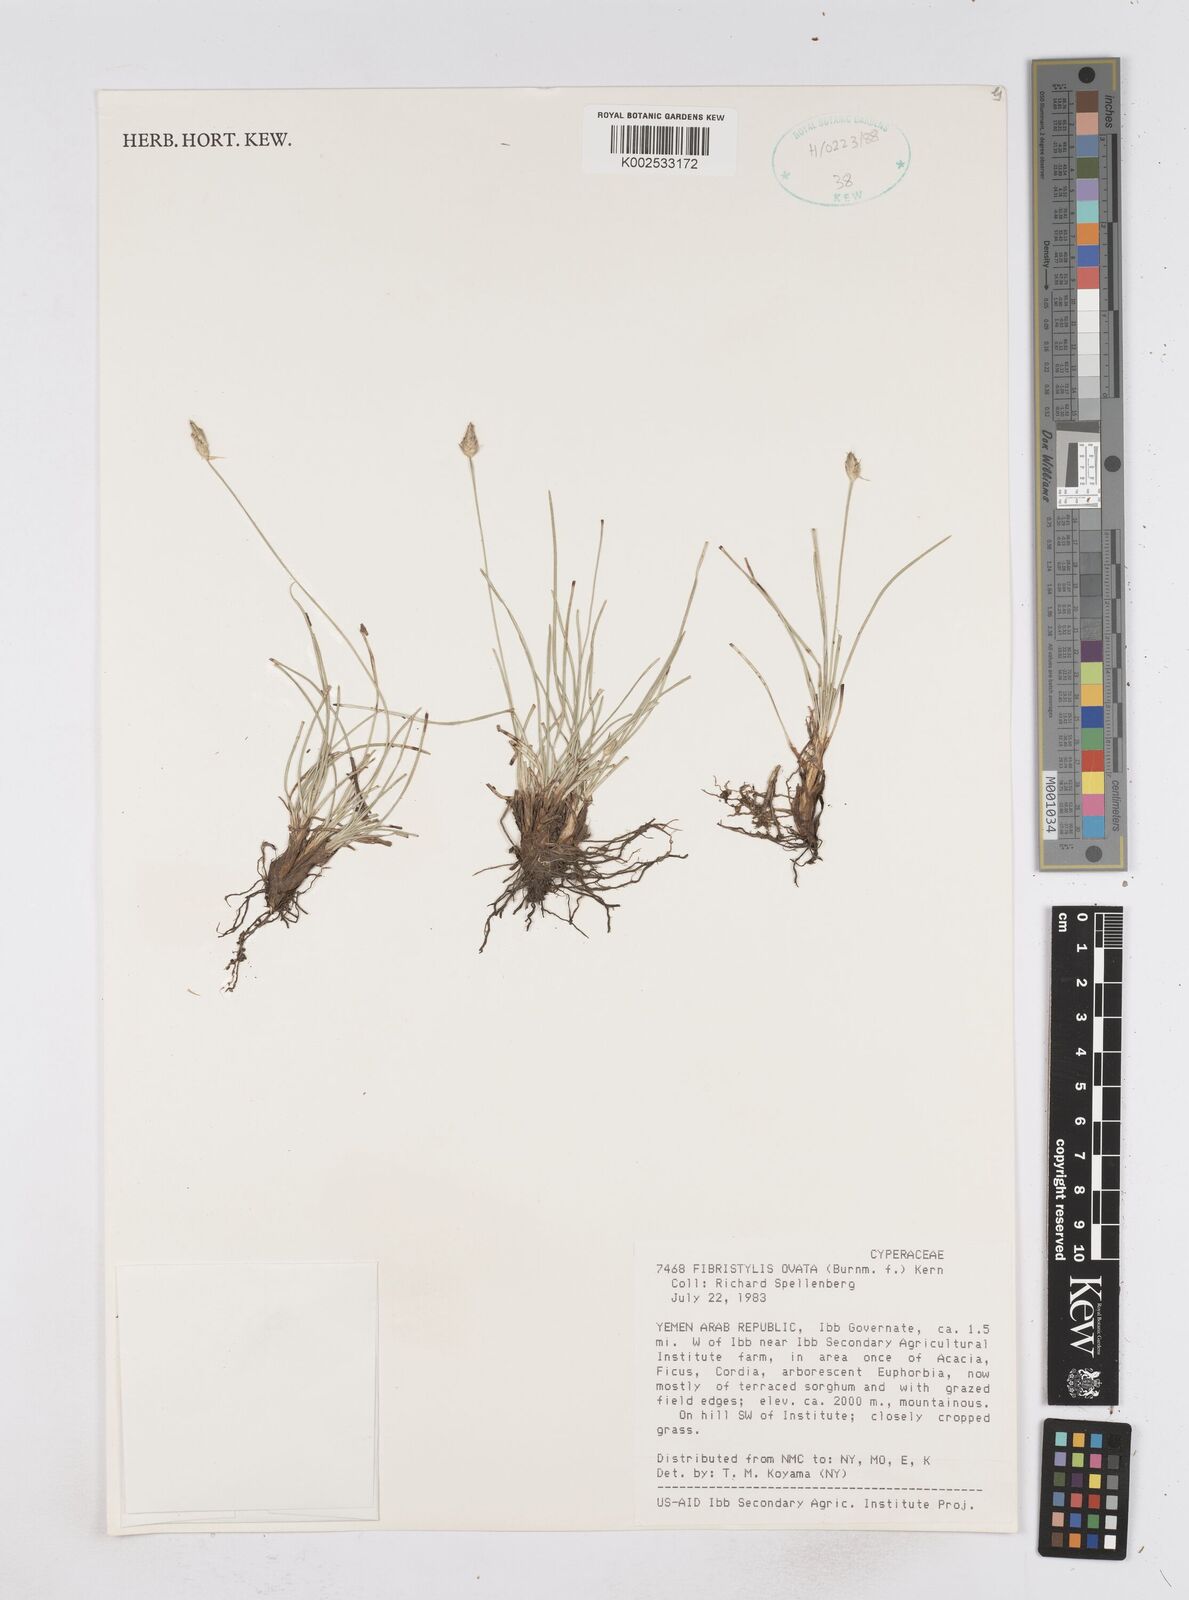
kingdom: Plantae
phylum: Tracheophyta
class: Liliopsida
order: Poales
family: Cyperaceae
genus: Abildgaardia
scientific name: Abildgaardia ovata
